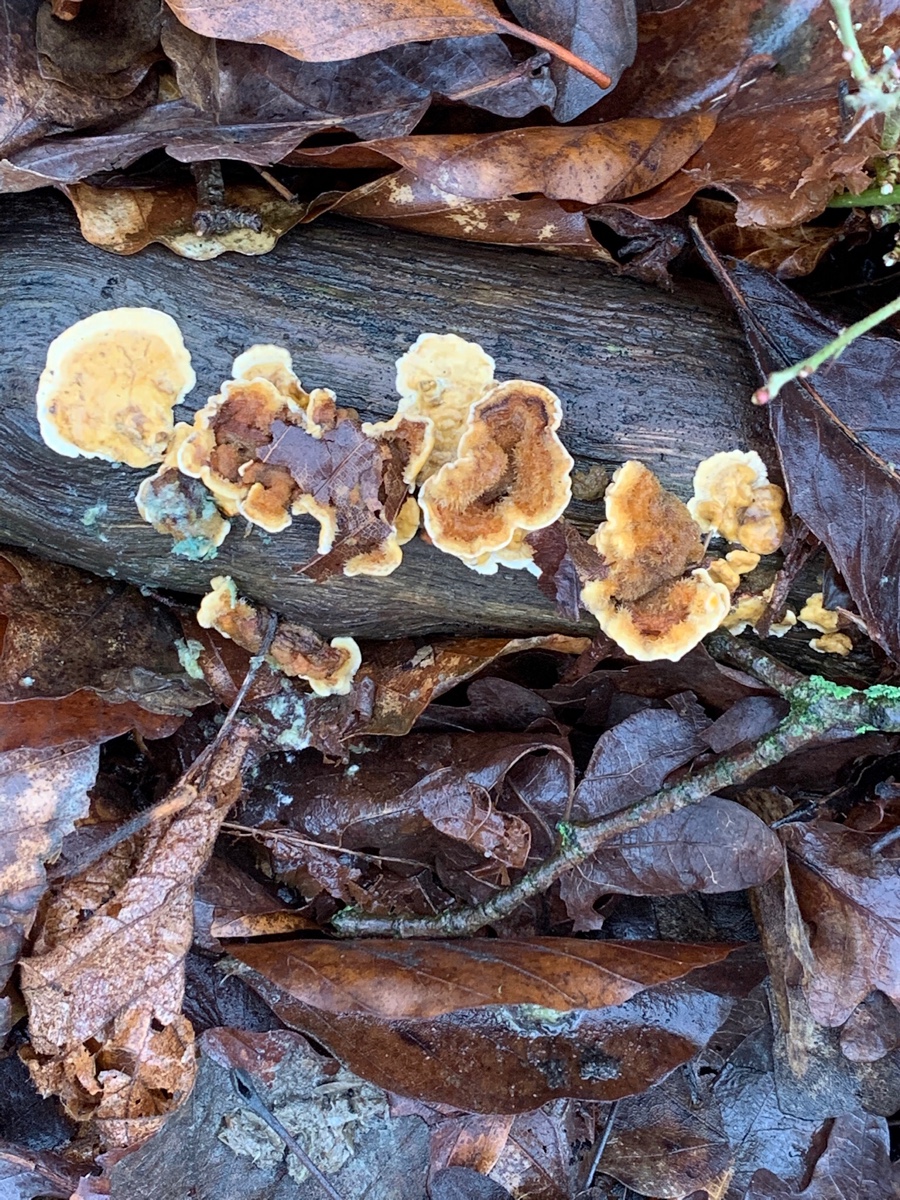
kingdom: Fungi
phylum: Basidiomycota
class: Agaricomycetes
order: Russulales
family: Stereaceae
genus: Stereum
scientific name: Stereum hirsutum
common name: håret lædersvamp
